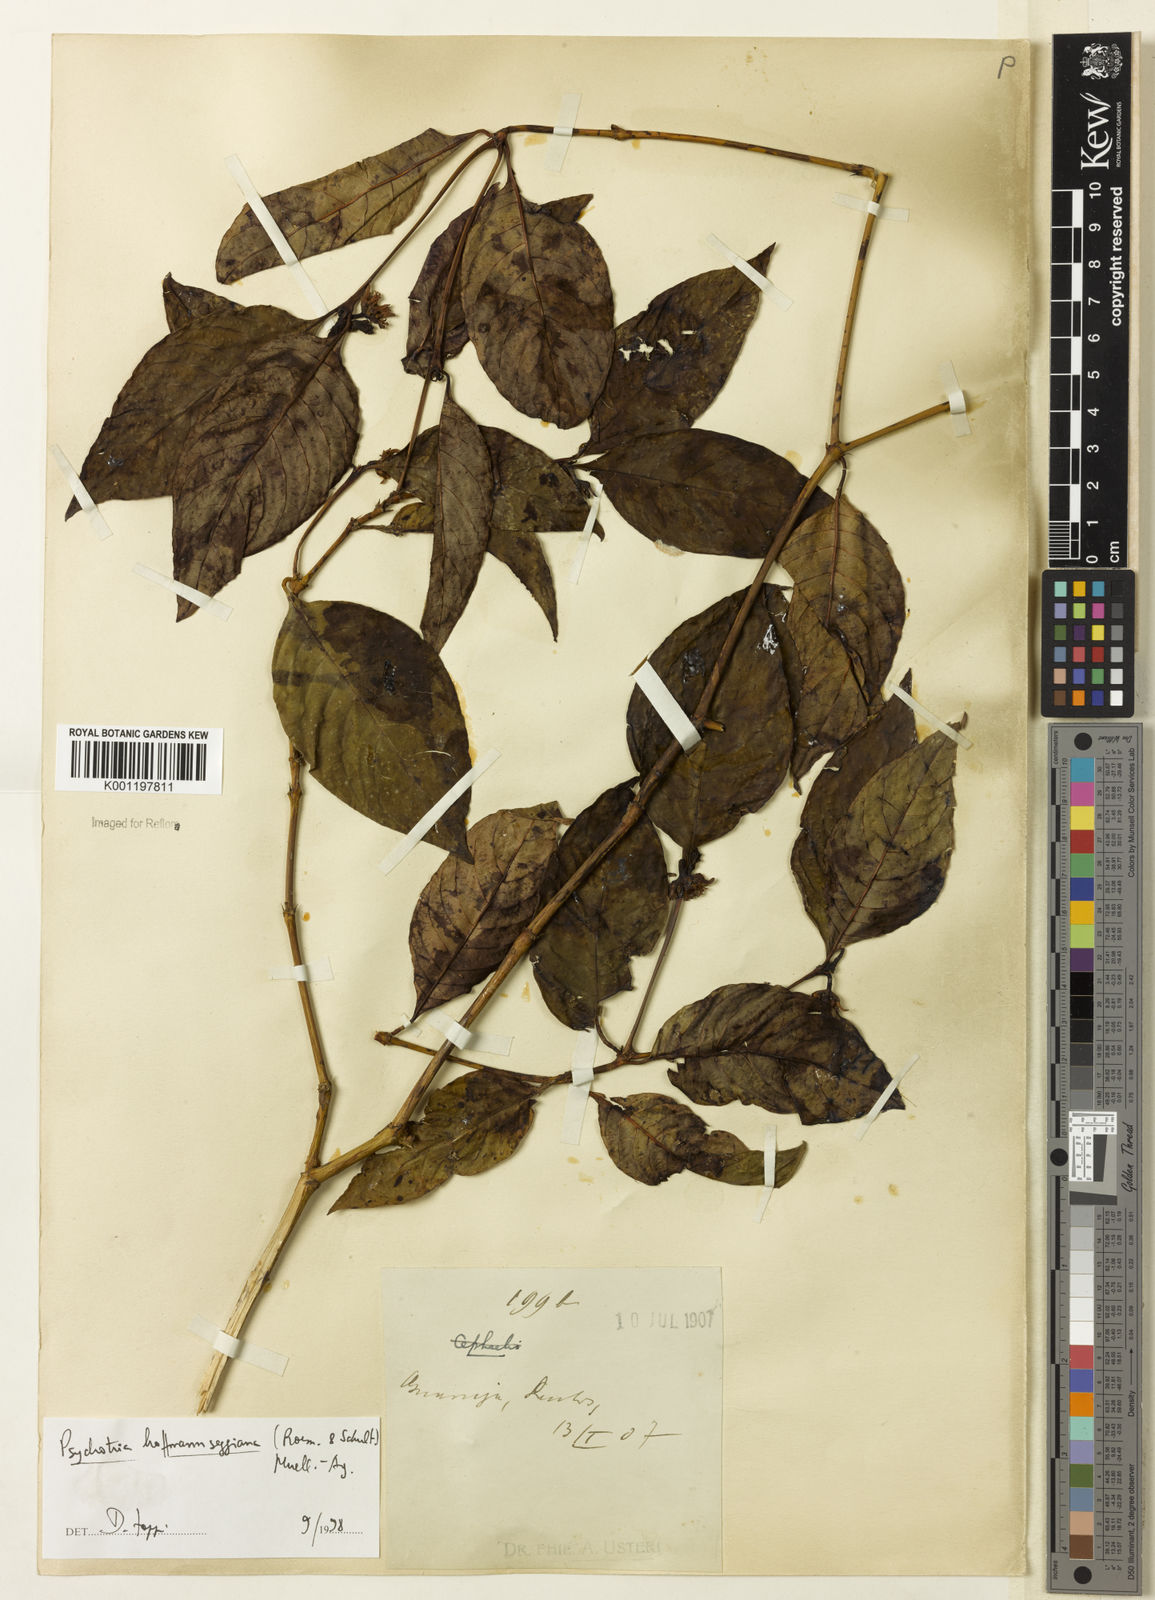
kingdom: Plantae
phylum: Tracheophyta
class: Magnoliopsida
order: Gentianales
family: Rubiaceae
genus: Psychotria
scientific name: Psychotria
